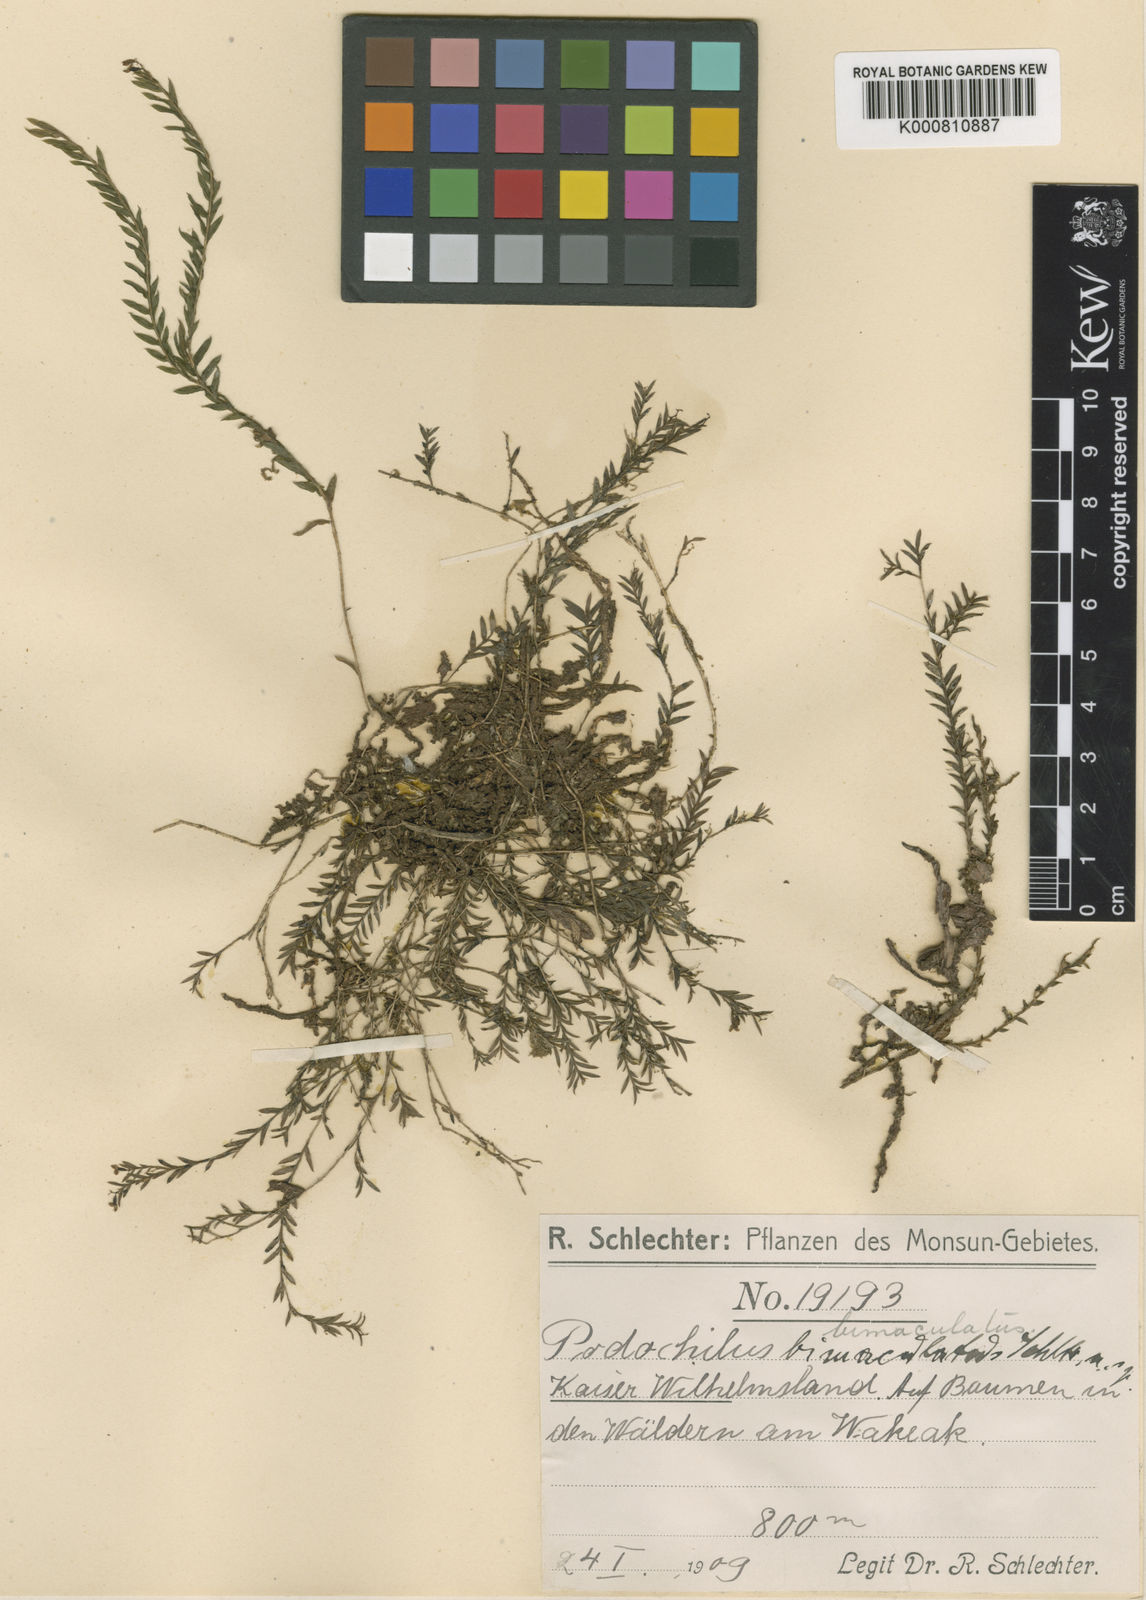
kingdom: Plantae
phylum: Tracheophyta
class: Liliopsida
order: Asparagales
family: Orchidaceae
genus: Podochilus
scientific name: Podochilus hellwigii
